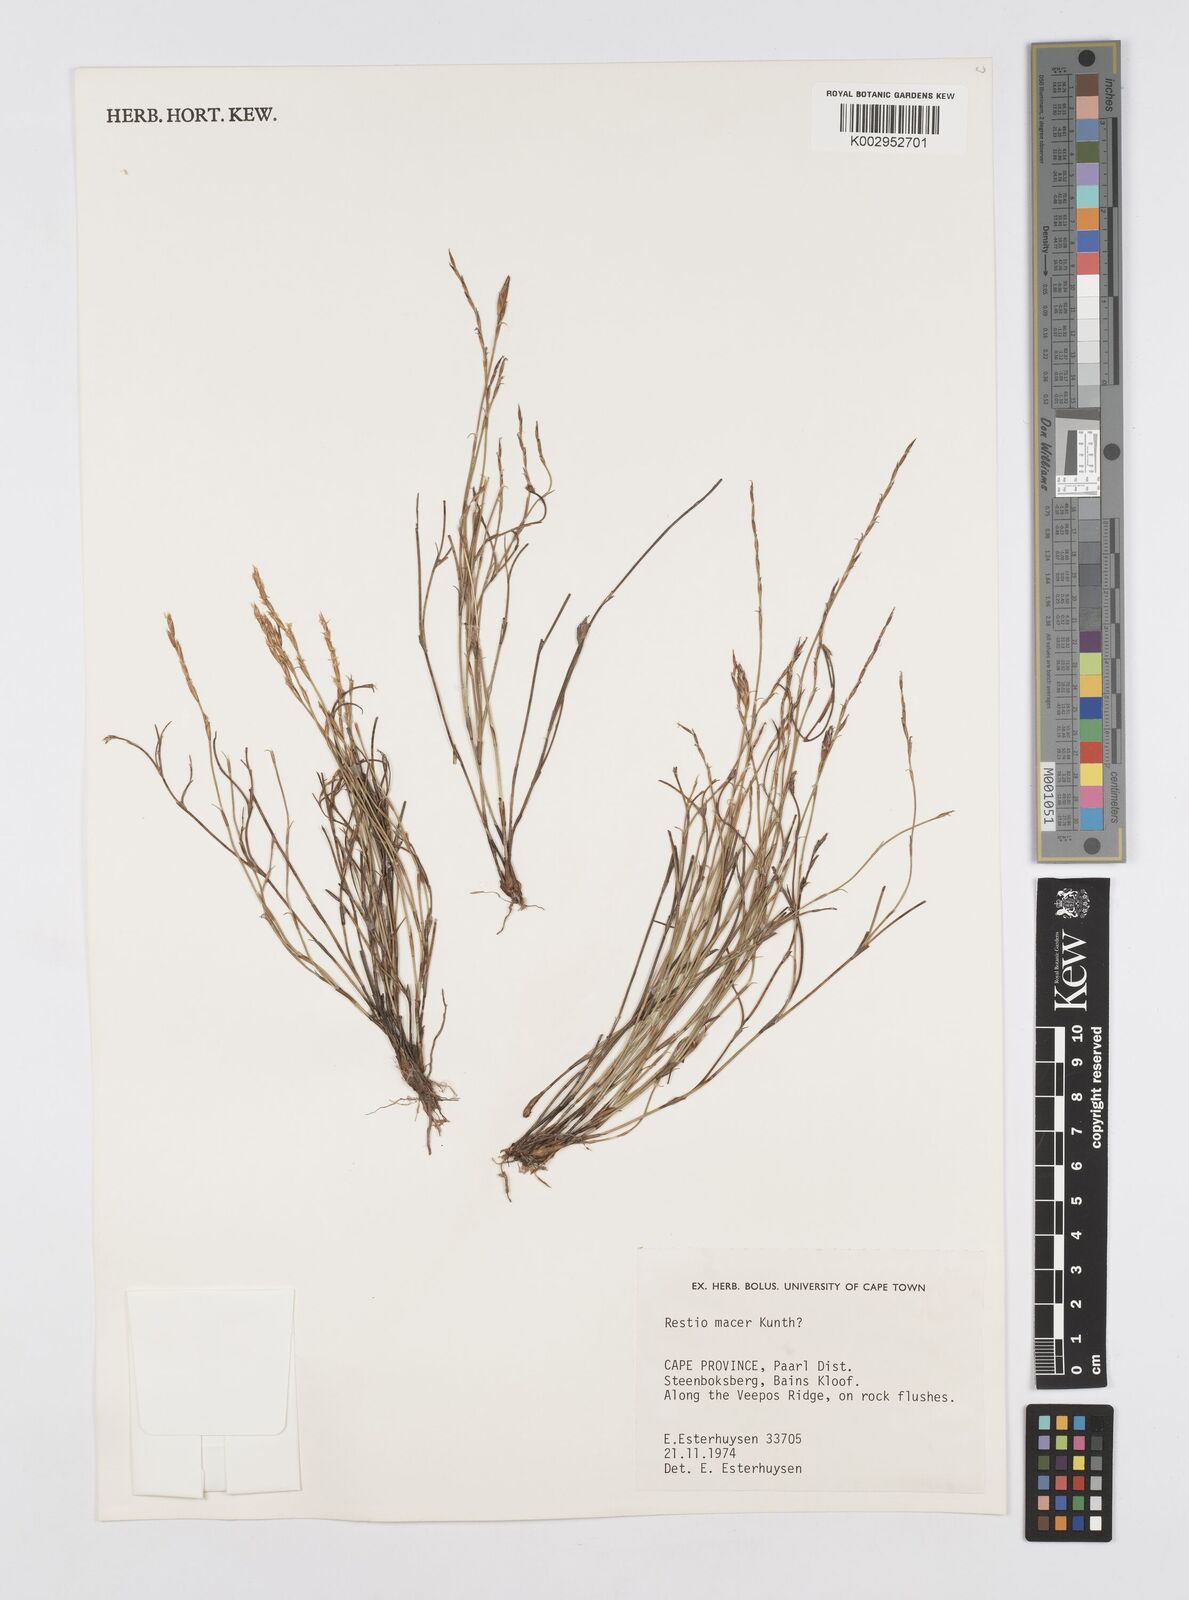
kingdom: Plantae
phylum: Tracheophyta
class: Liliopsida
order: Poales
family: Restionaceae
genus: Restio
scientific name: Restio macer
